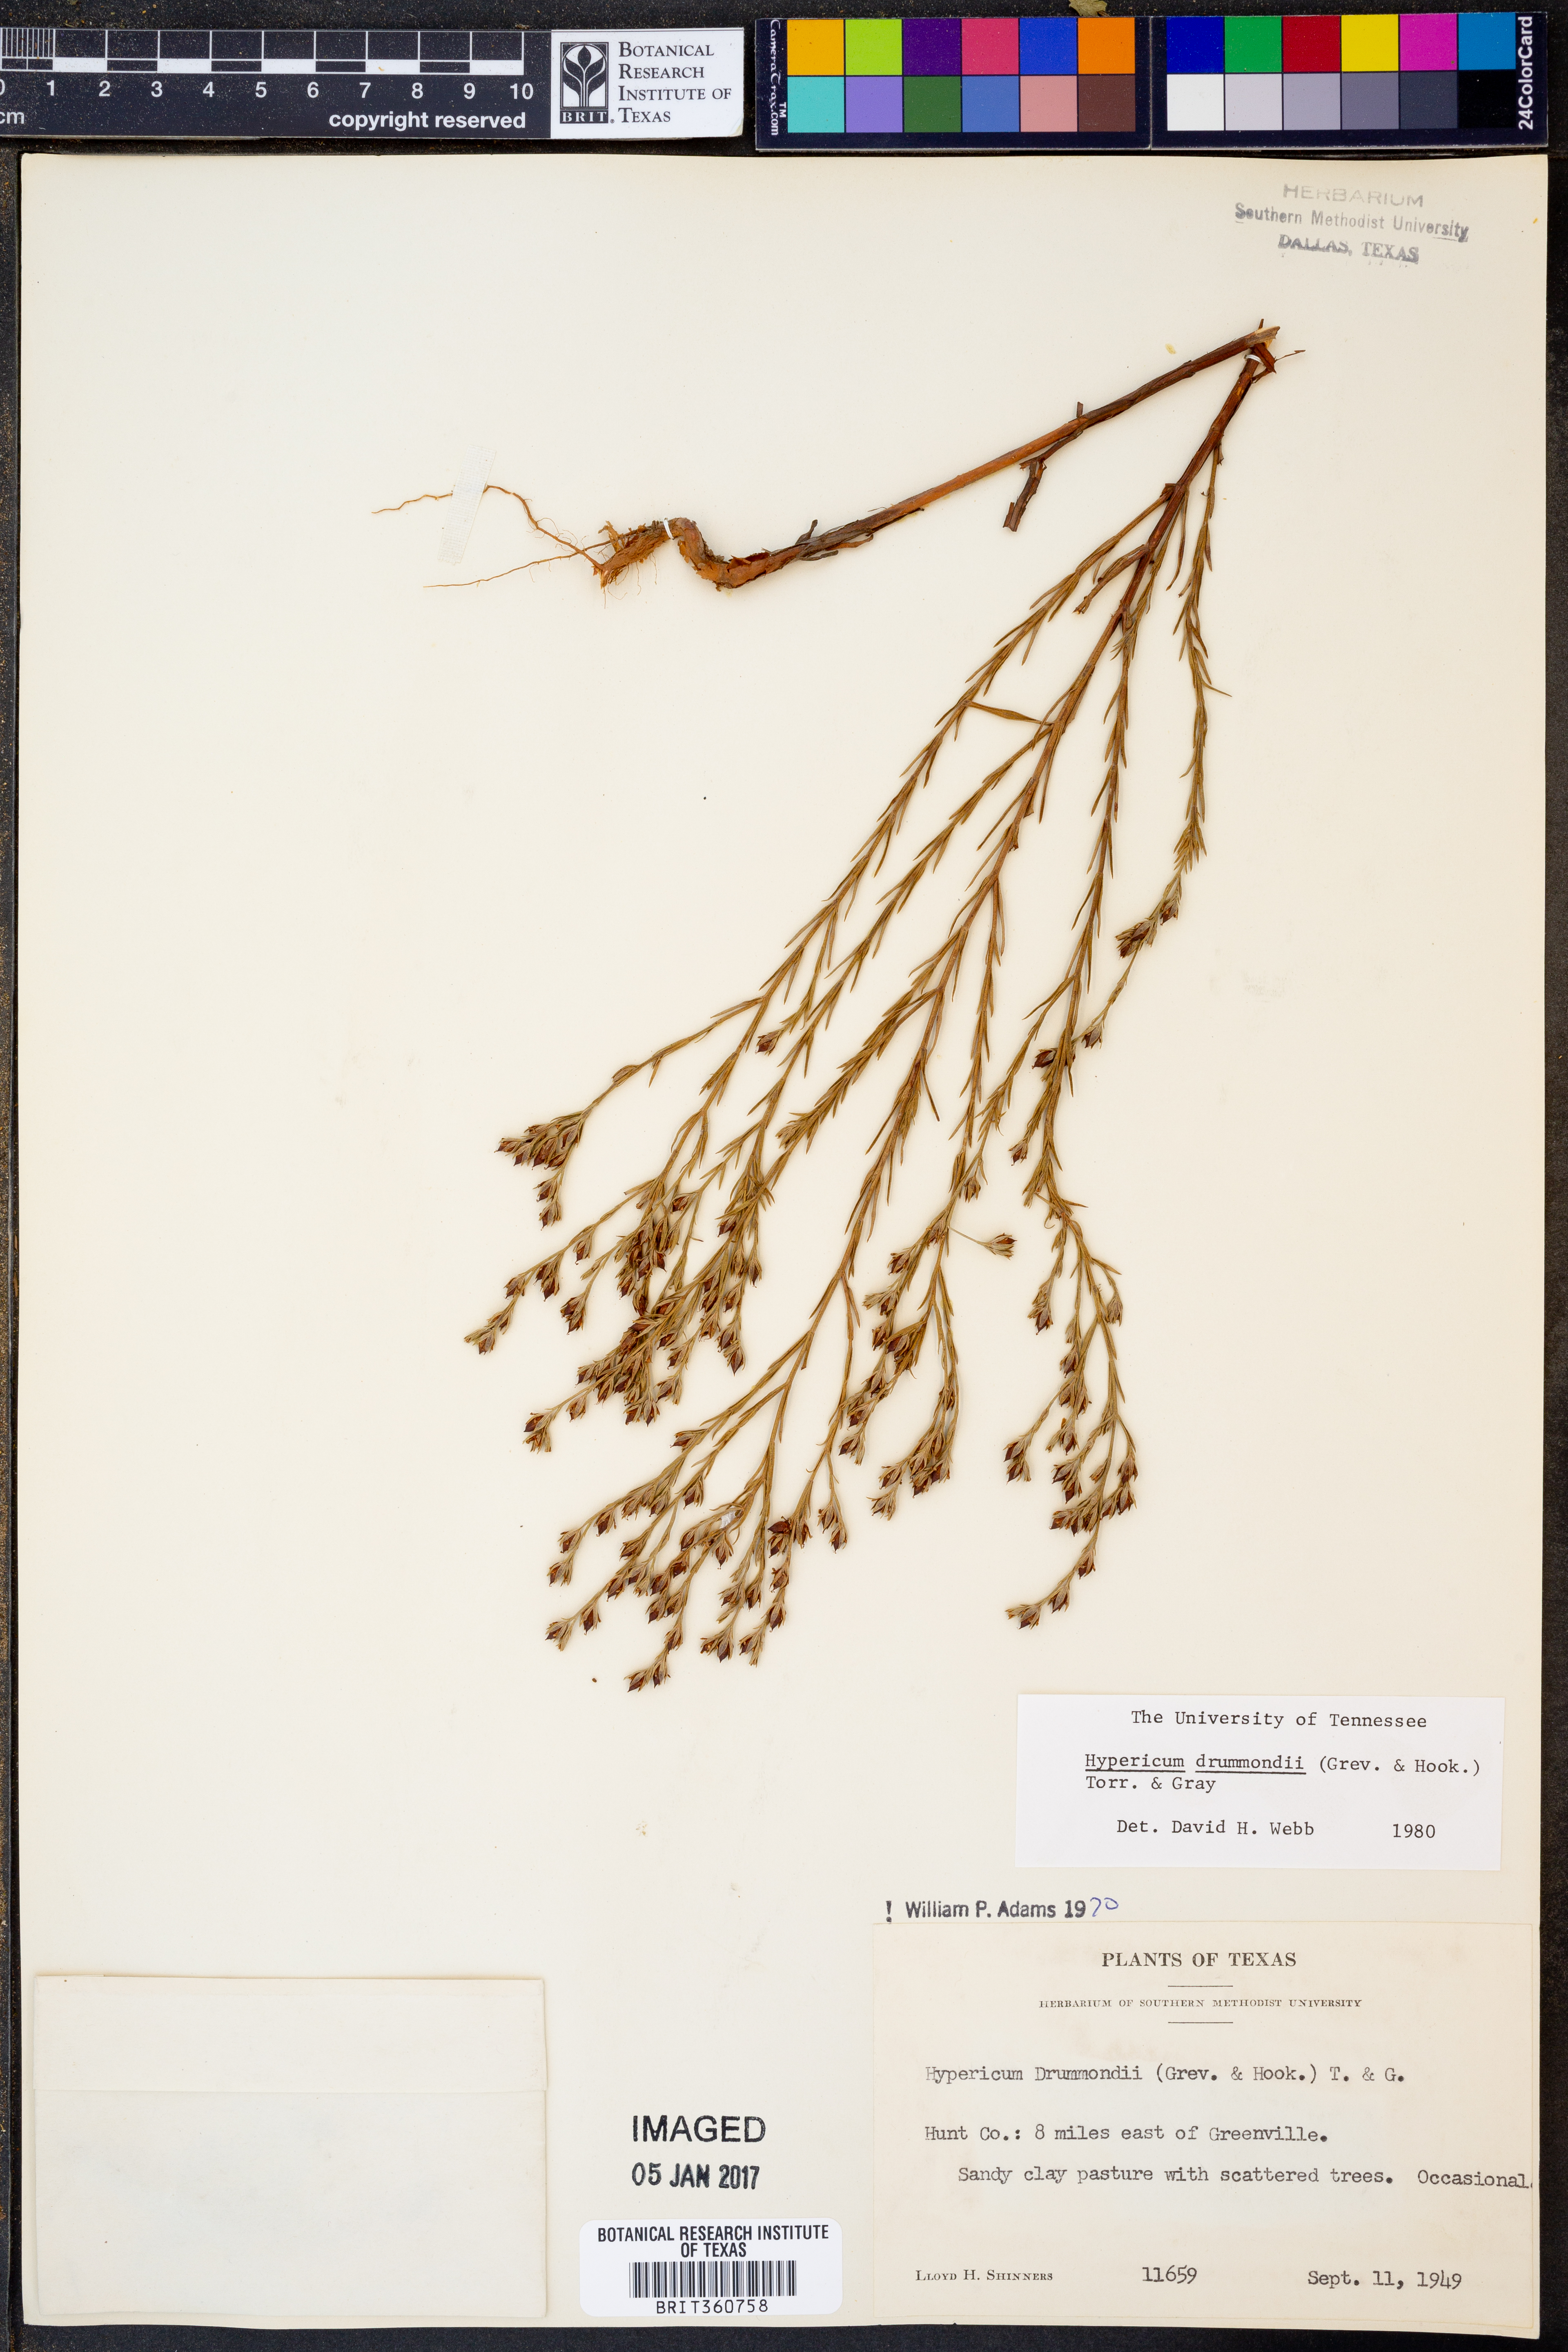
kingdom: Plantae
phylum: Tracheophyta
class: Magnoliopsida
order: Malpighiales
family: Hypericaceae
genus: Hypericum
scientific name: Hypericum drummondii
